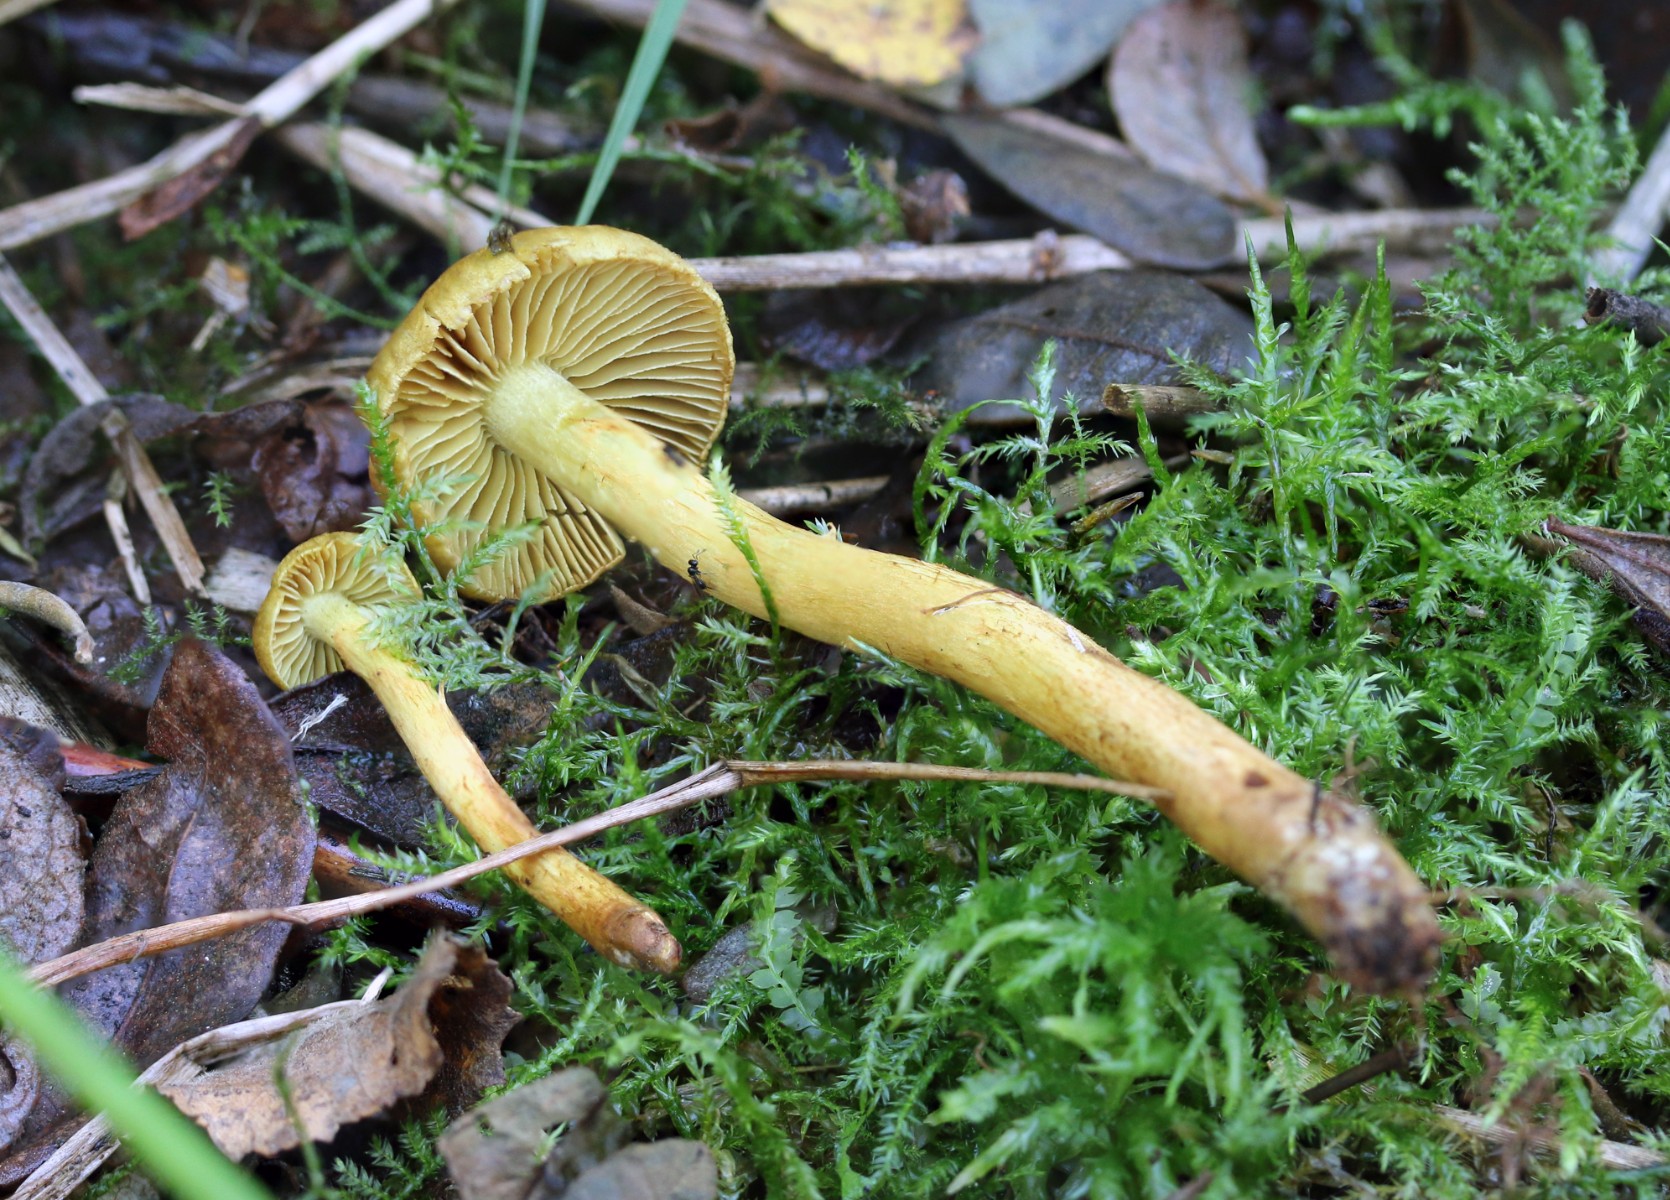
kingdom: Fungi
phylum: Basidiomycota
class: Agaricomycetes
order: Agaricales
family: Cortinariaceae
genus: Cortinarius
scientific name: Cortinarius cinnamomeoluteus
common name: kanelgul slørhat
